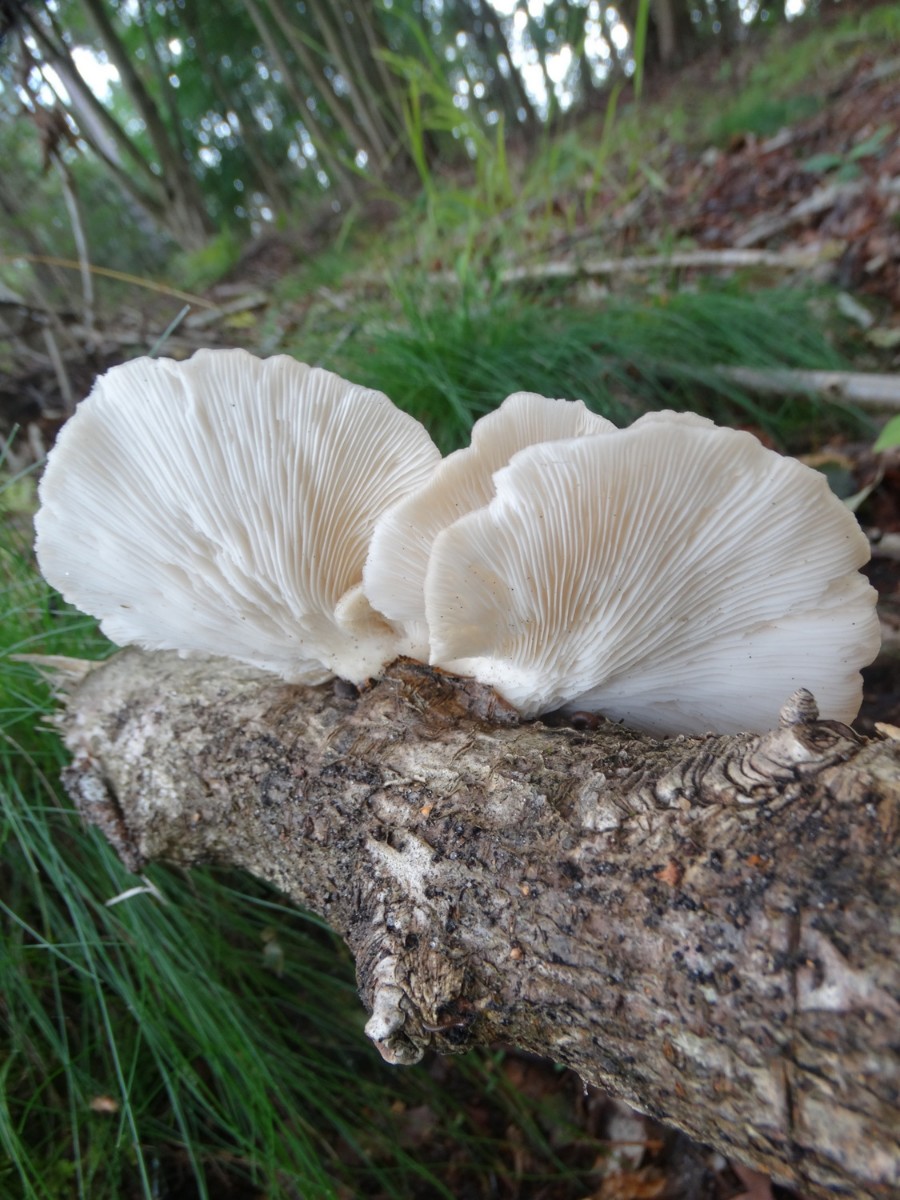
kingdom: Fungi
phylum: Basidiomycota
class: Agaricomycetes
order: Agaricales
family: Pleurotaceae
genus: Pleurotus
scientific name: Pleurotus pulmonarius
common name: sommer-østershat
